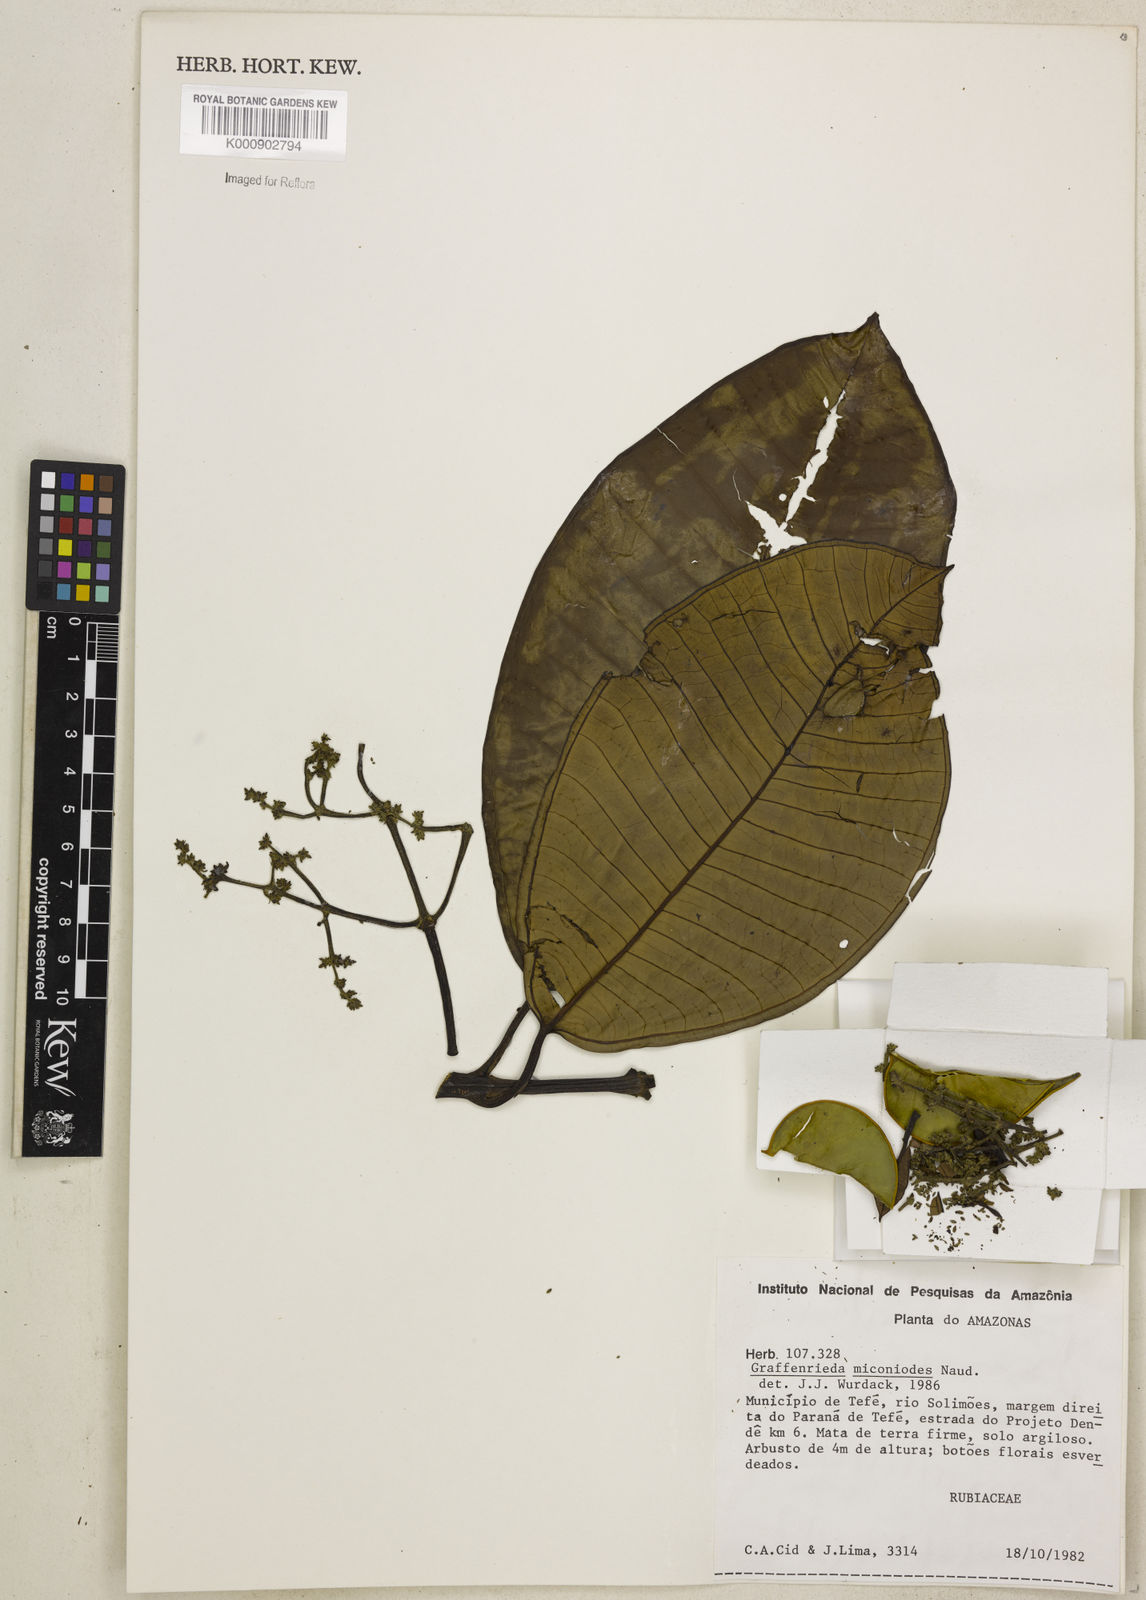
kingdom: Plantae
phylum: Tracheophyta
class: Magnoliopsida
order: Myrtales
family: Melastomataceae
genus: Graffenrieda
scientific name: Graffenrieda miconioides
